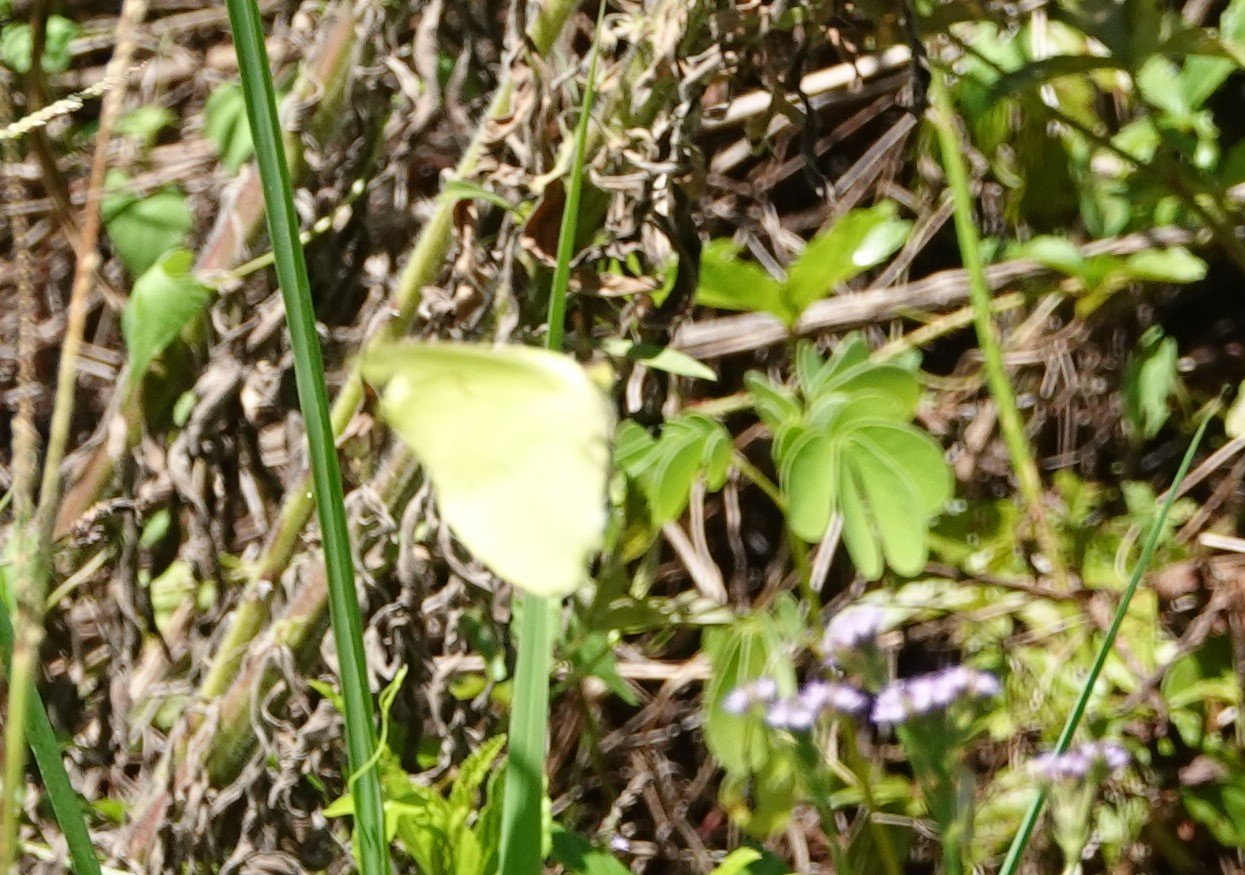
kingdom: Animalia
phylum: Arthropoda
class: Insecta
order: Lepidoptera
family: Pieridae
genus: Phoebis
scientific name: Phoebis sennae
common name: Cloudless Sulphur
